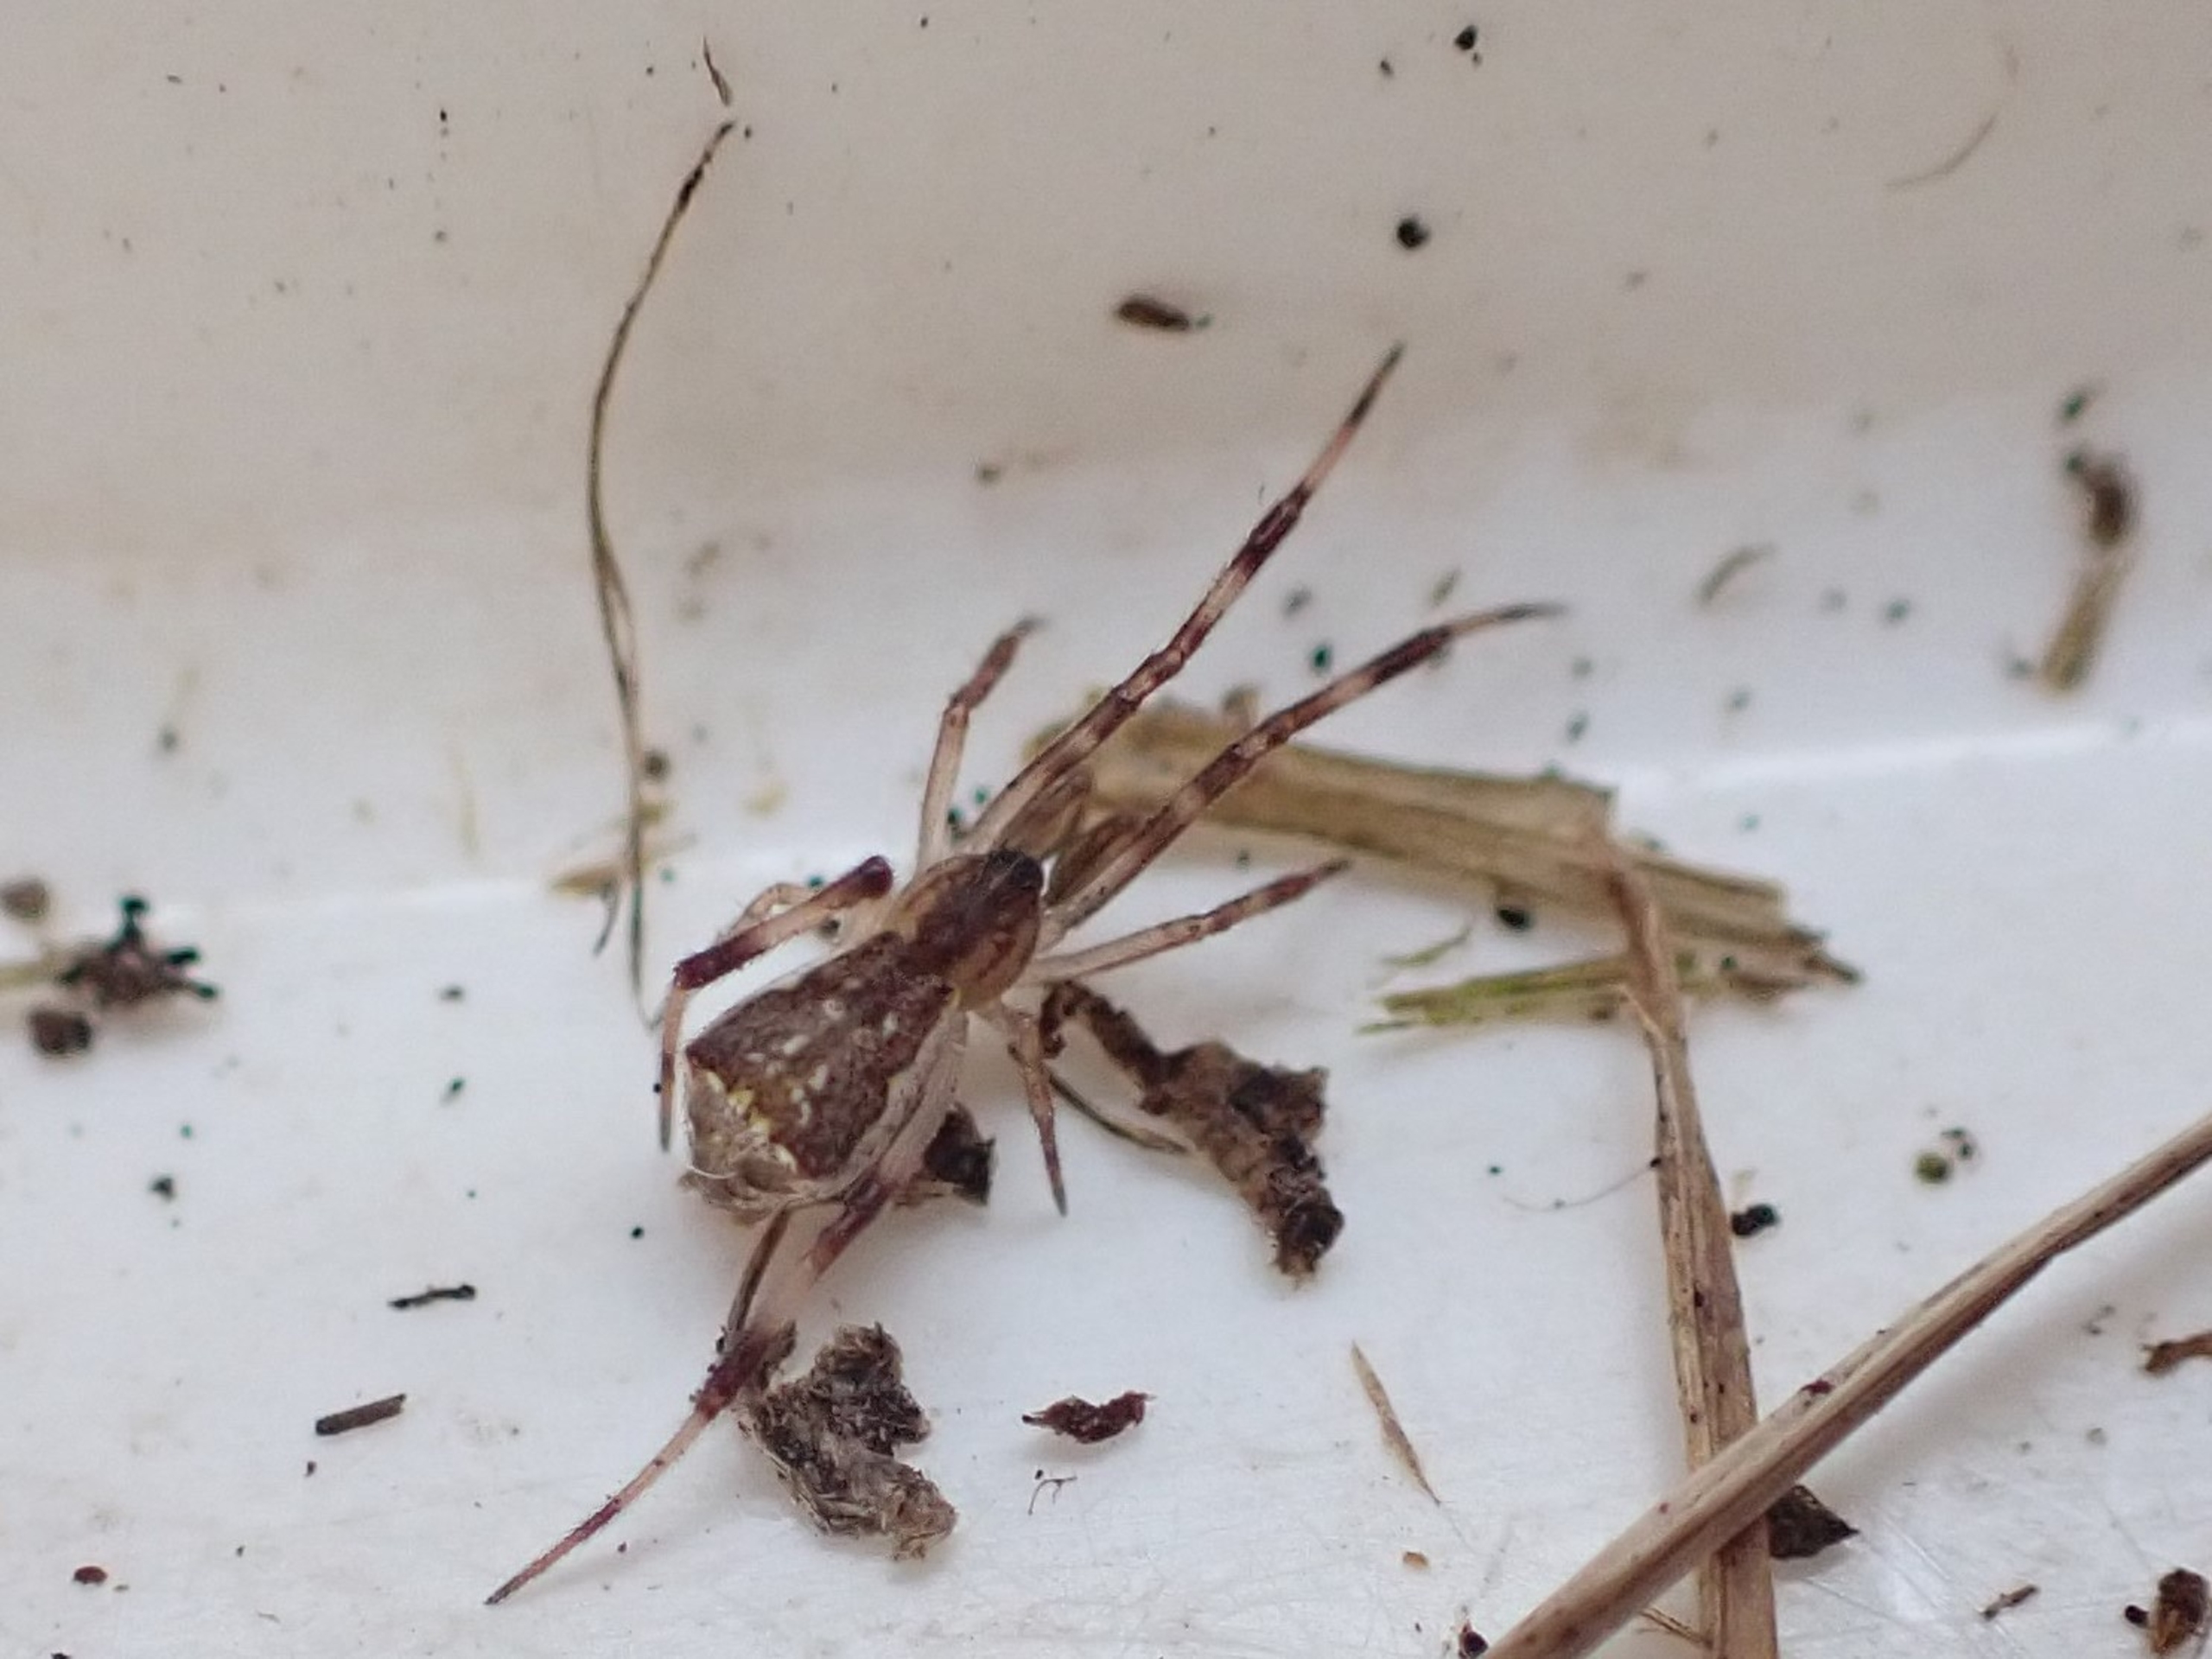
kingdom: Animalia
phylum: Arthropoda
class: Arachnida
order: Araneae
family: Theridiidae
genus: Episinus
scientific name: Episinus angulatus
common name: Balalajkaedderkop
